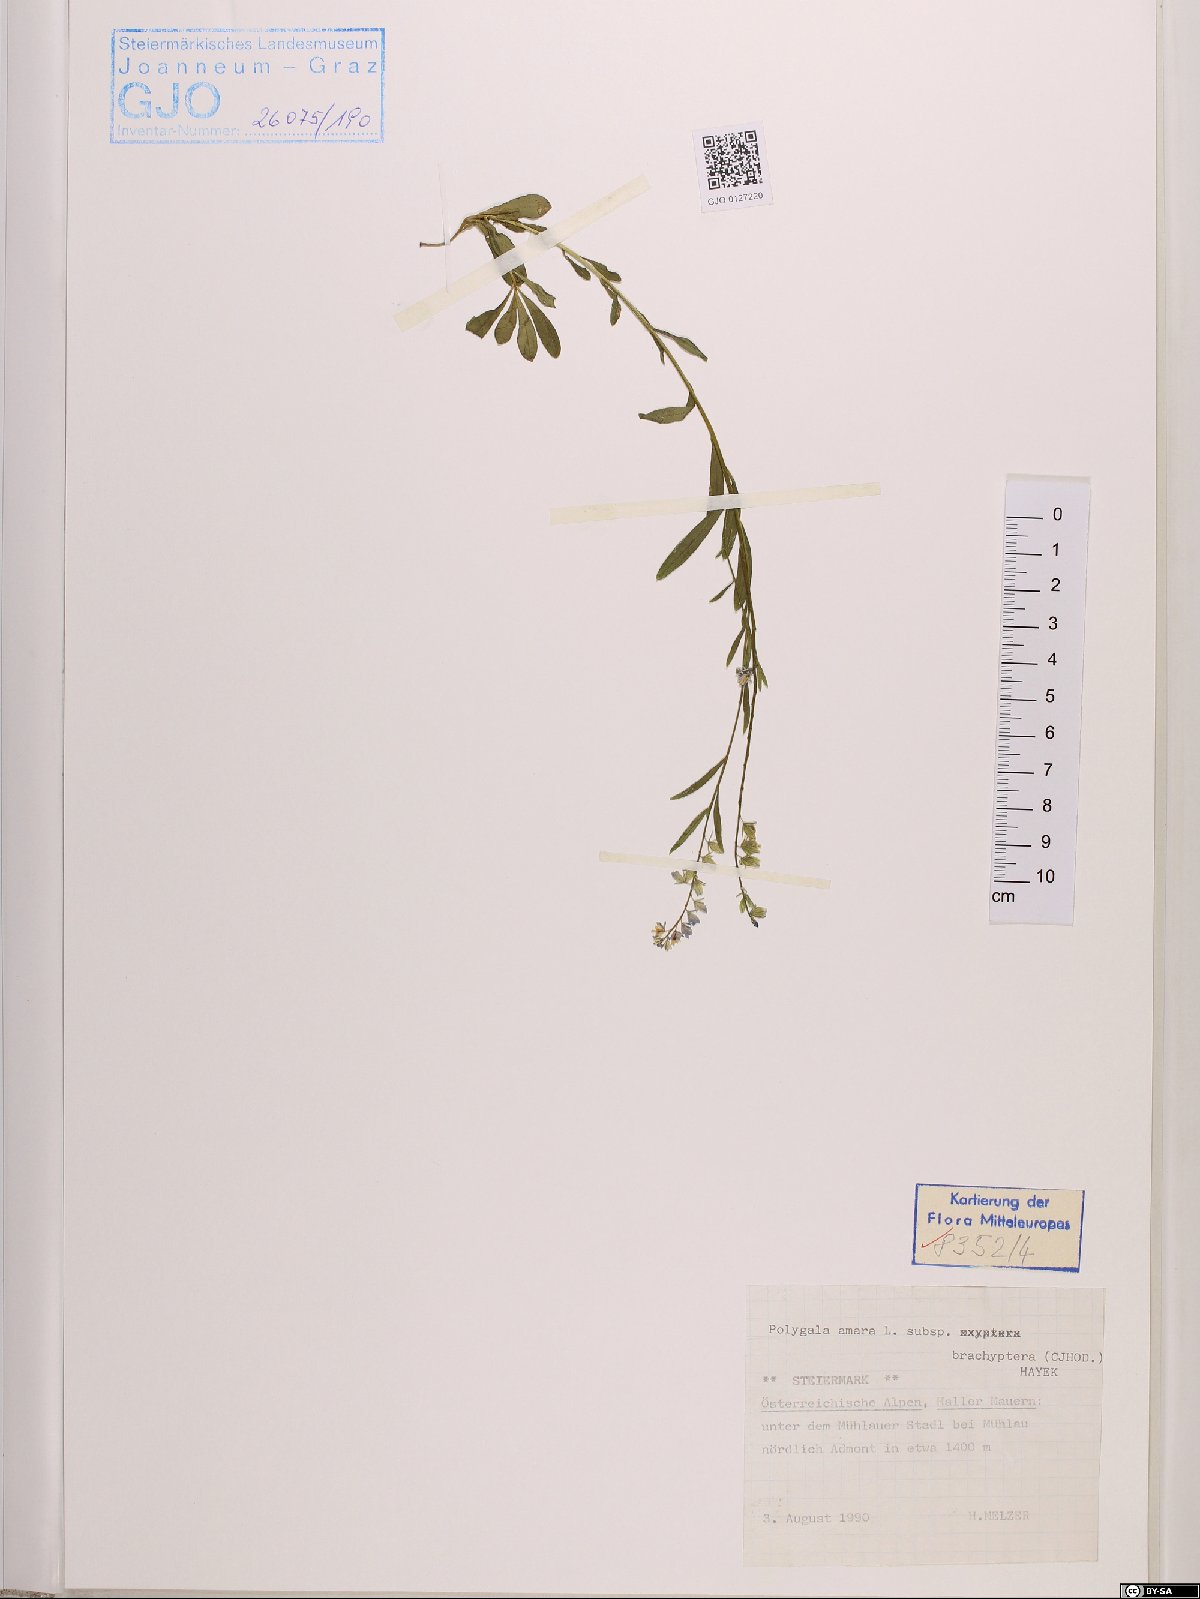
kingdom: Plantae
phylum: Tracheophyta
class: Magnoliopsida
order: Fabales
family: Polygalaceae
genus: Polygala
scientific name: Polygala amara
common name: Milkwort
